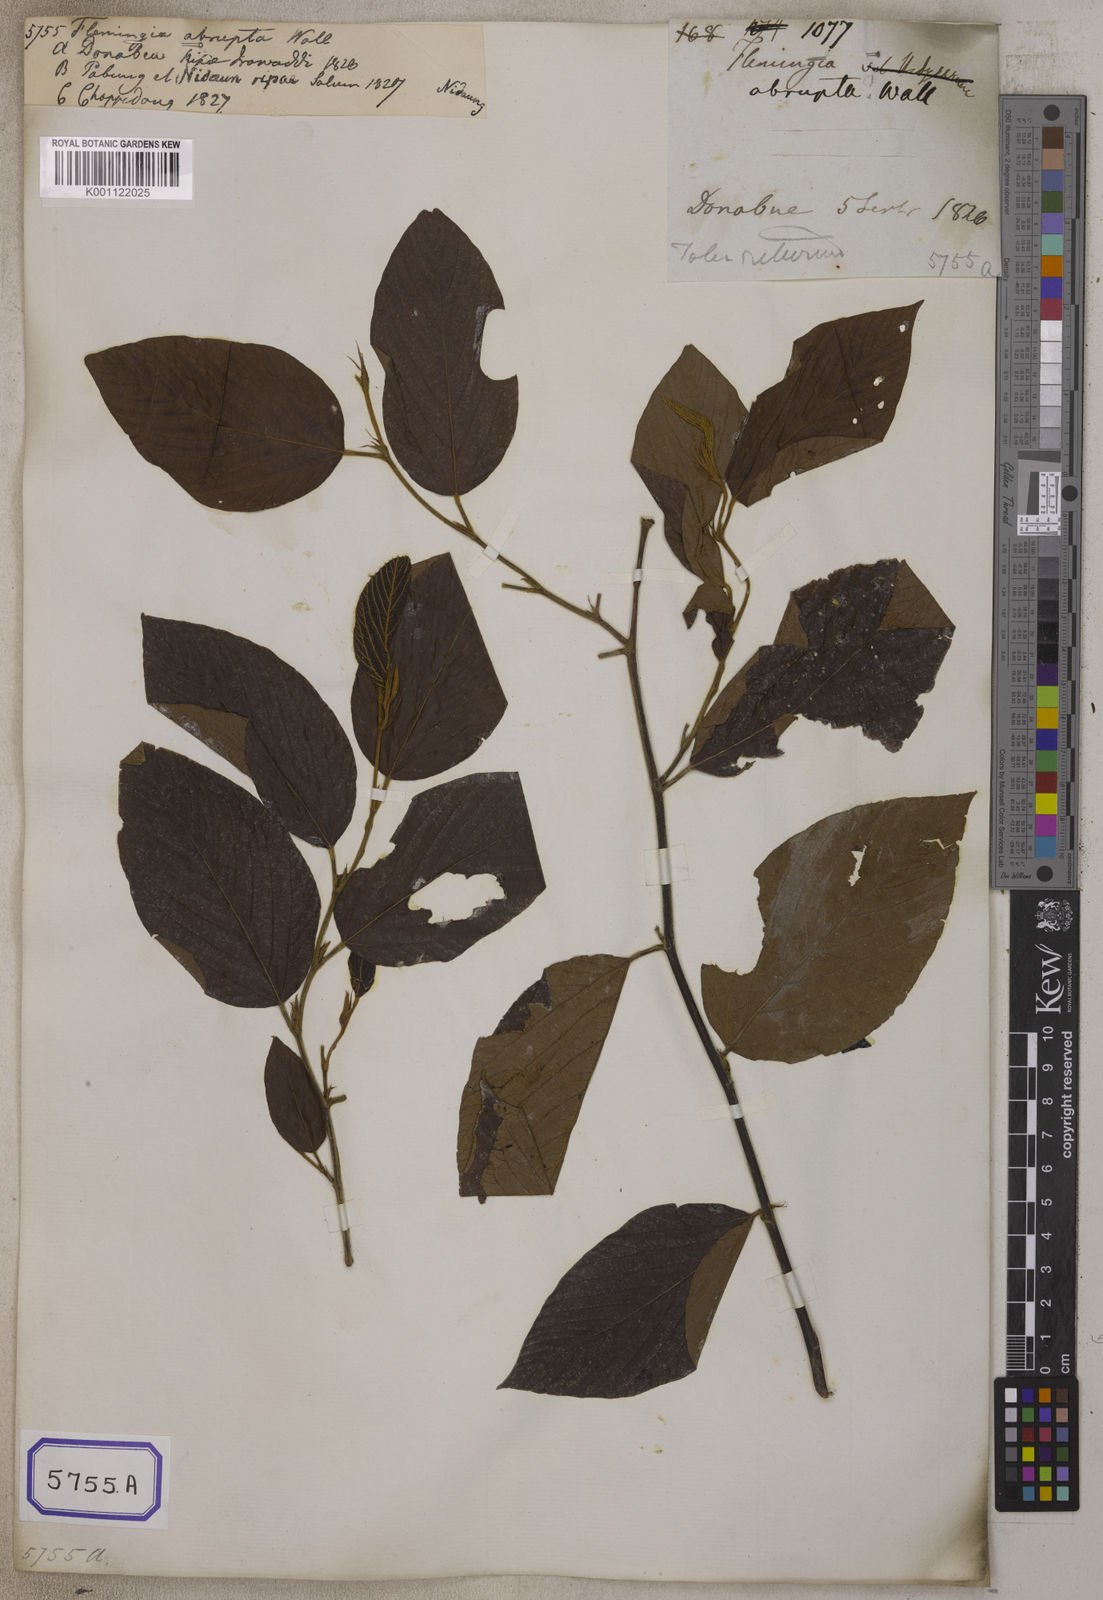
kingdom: Plantae
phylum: Tracheophyta
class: Magnoliopsida
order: Fabales
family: Fabaceae
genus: Flemingia
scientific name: Flemingia
